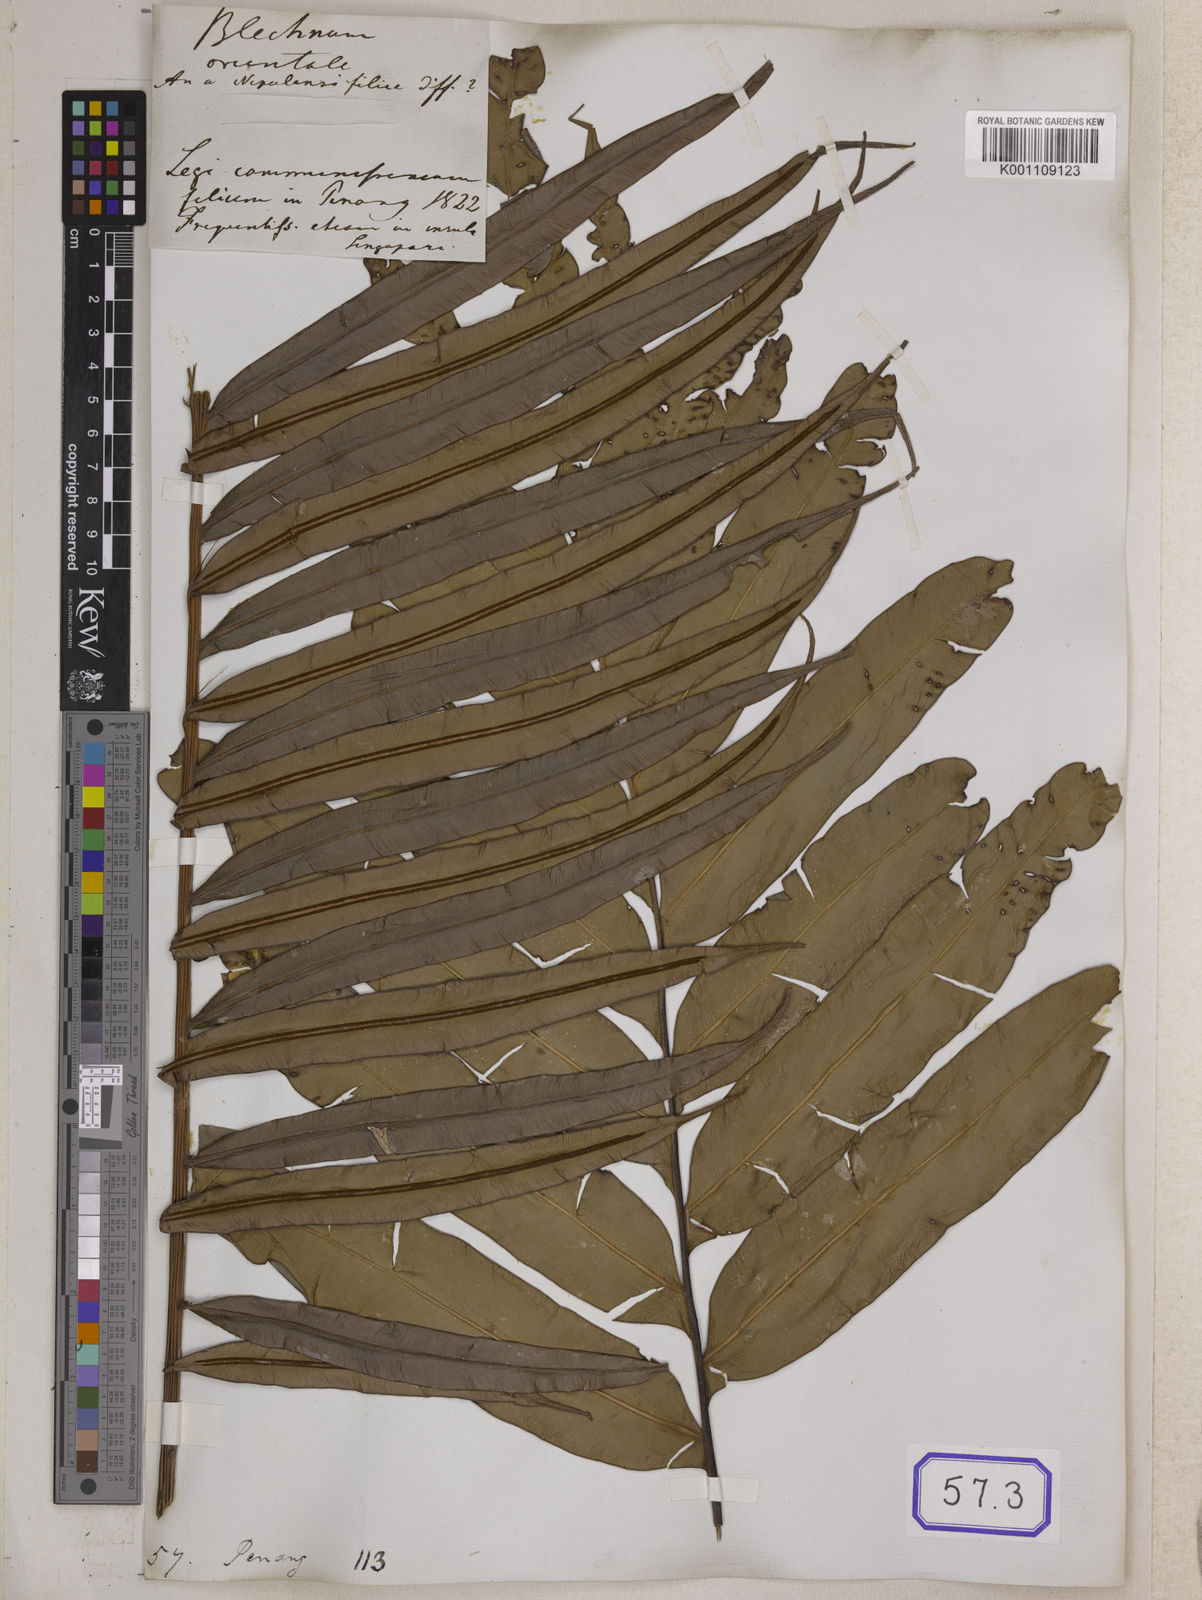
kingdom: Plantae
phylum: Tracheophyta
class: Polypodiopsida
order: Polypodiales
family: Blechnaceae
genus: Blechnopsis
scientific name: Blechnopsis orientalis
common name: Oriental blechnum
